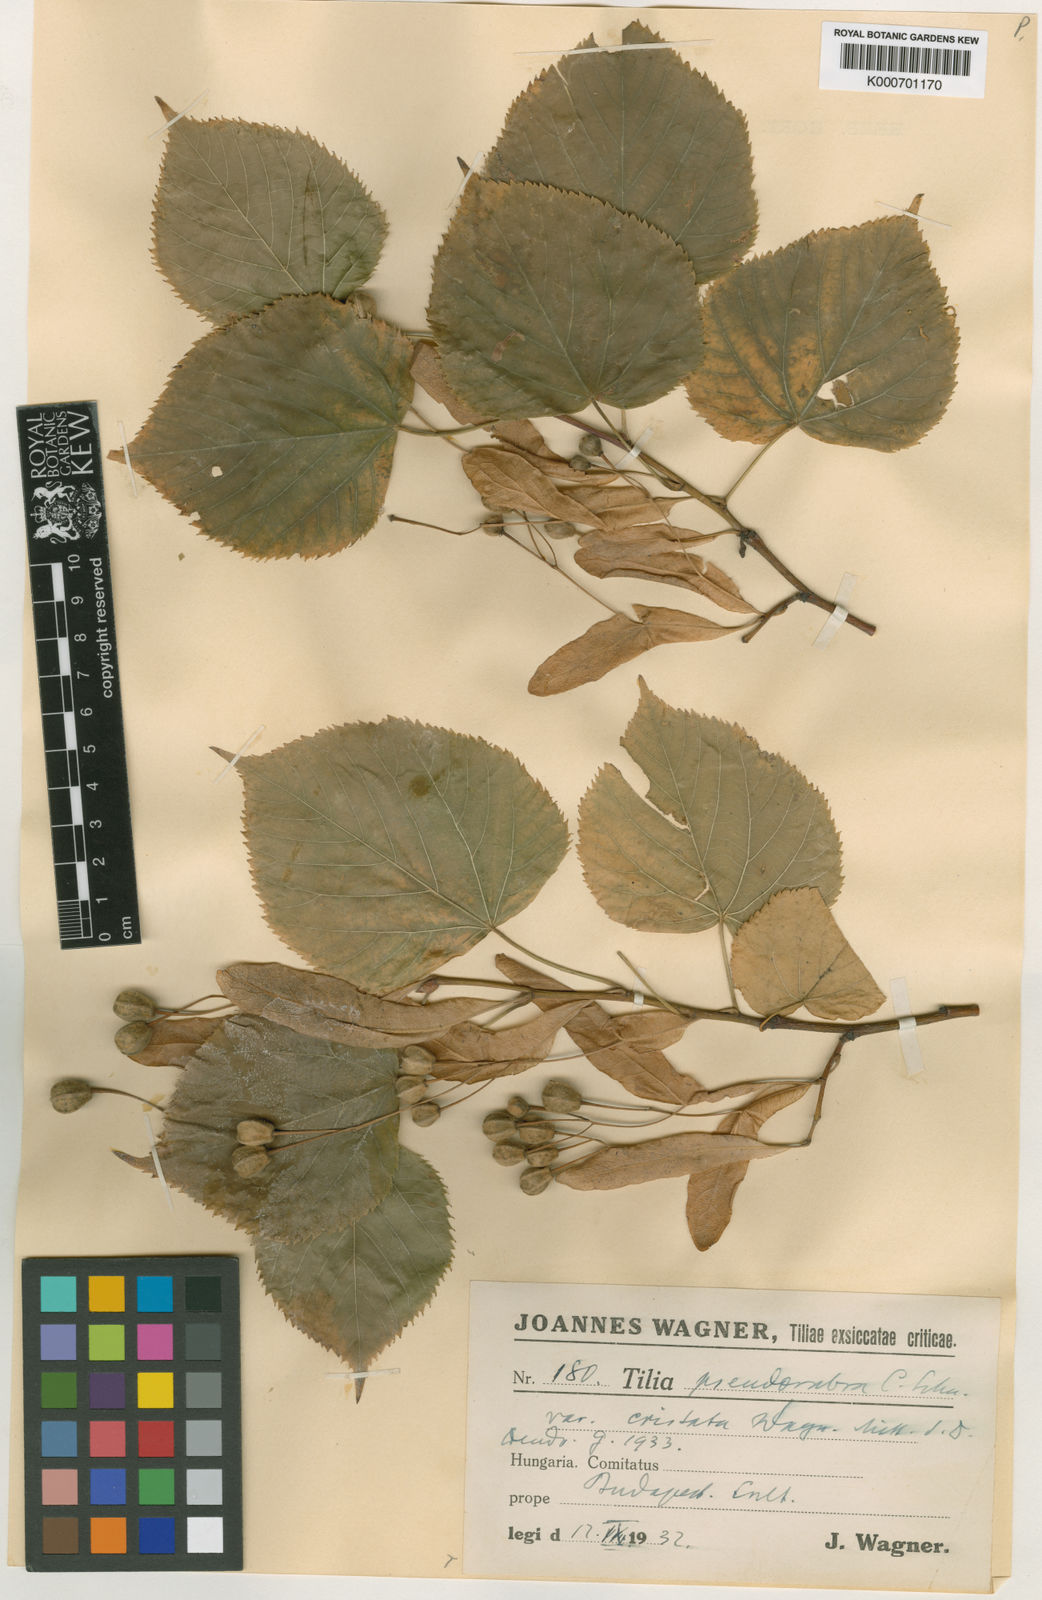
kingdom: Plantae
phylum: Tracheophyta
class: Magnoliopsida
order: Malvales
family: Malvaceae
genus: Tilia
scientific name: Tilia platyphyllos
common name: Large-leaved lime
